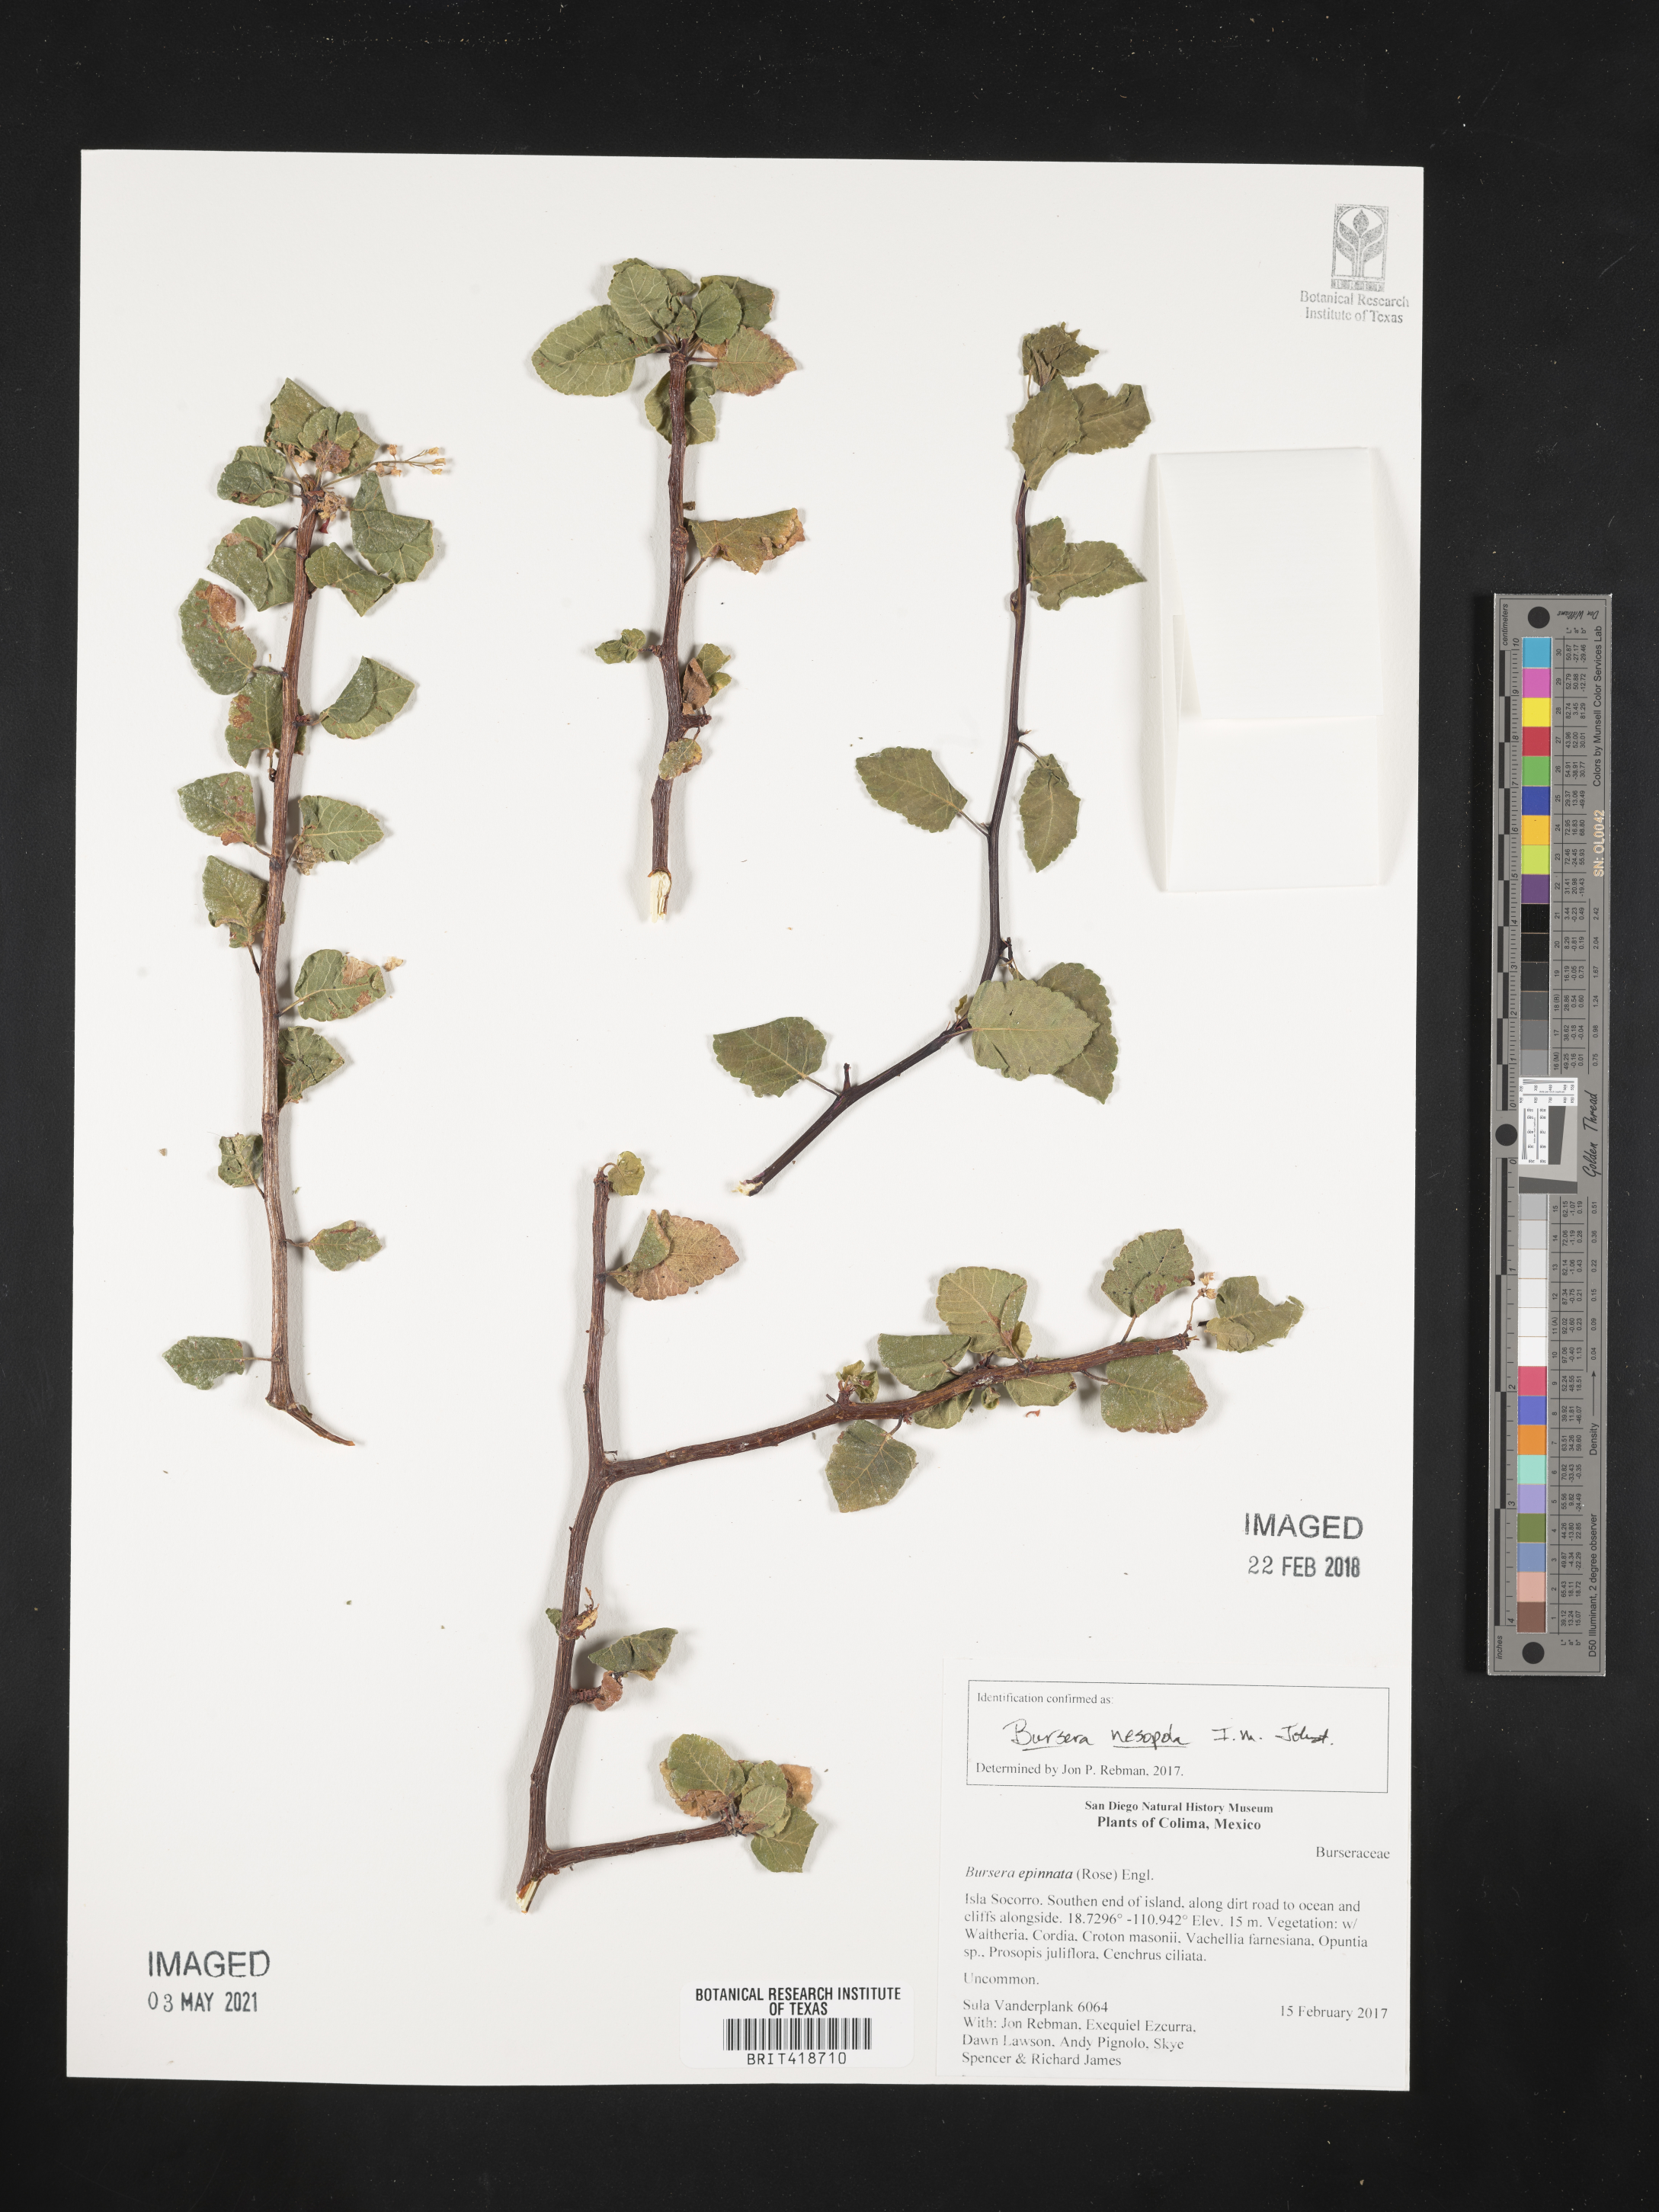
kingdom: Plantae
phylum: Tracheophyta
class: Magnoliopsida
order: Sapindales
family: Burseraceae
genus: Bursera
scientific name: Bursera epinnata
